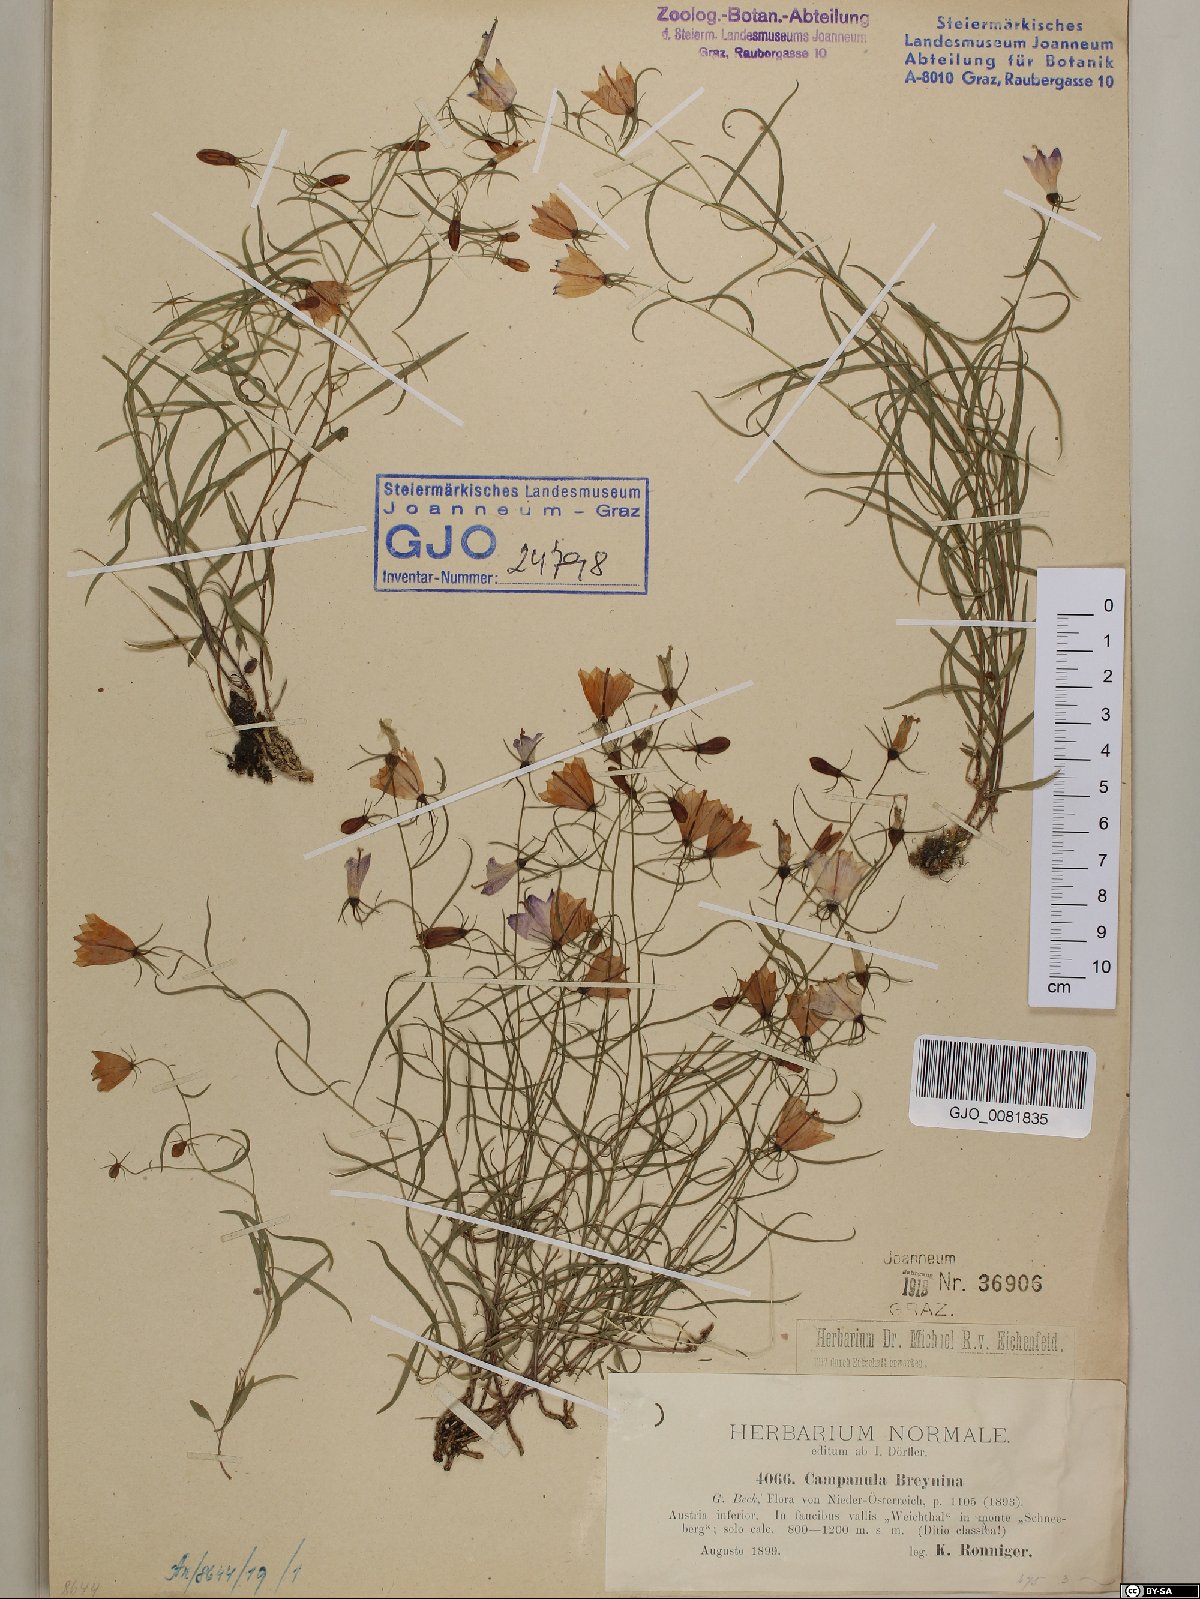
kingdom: Plantae
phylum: Tracheophyta
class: Magnoliopsida
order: Asterales
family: Campanulaceae
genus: Campanula
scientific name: Campanula breynina
